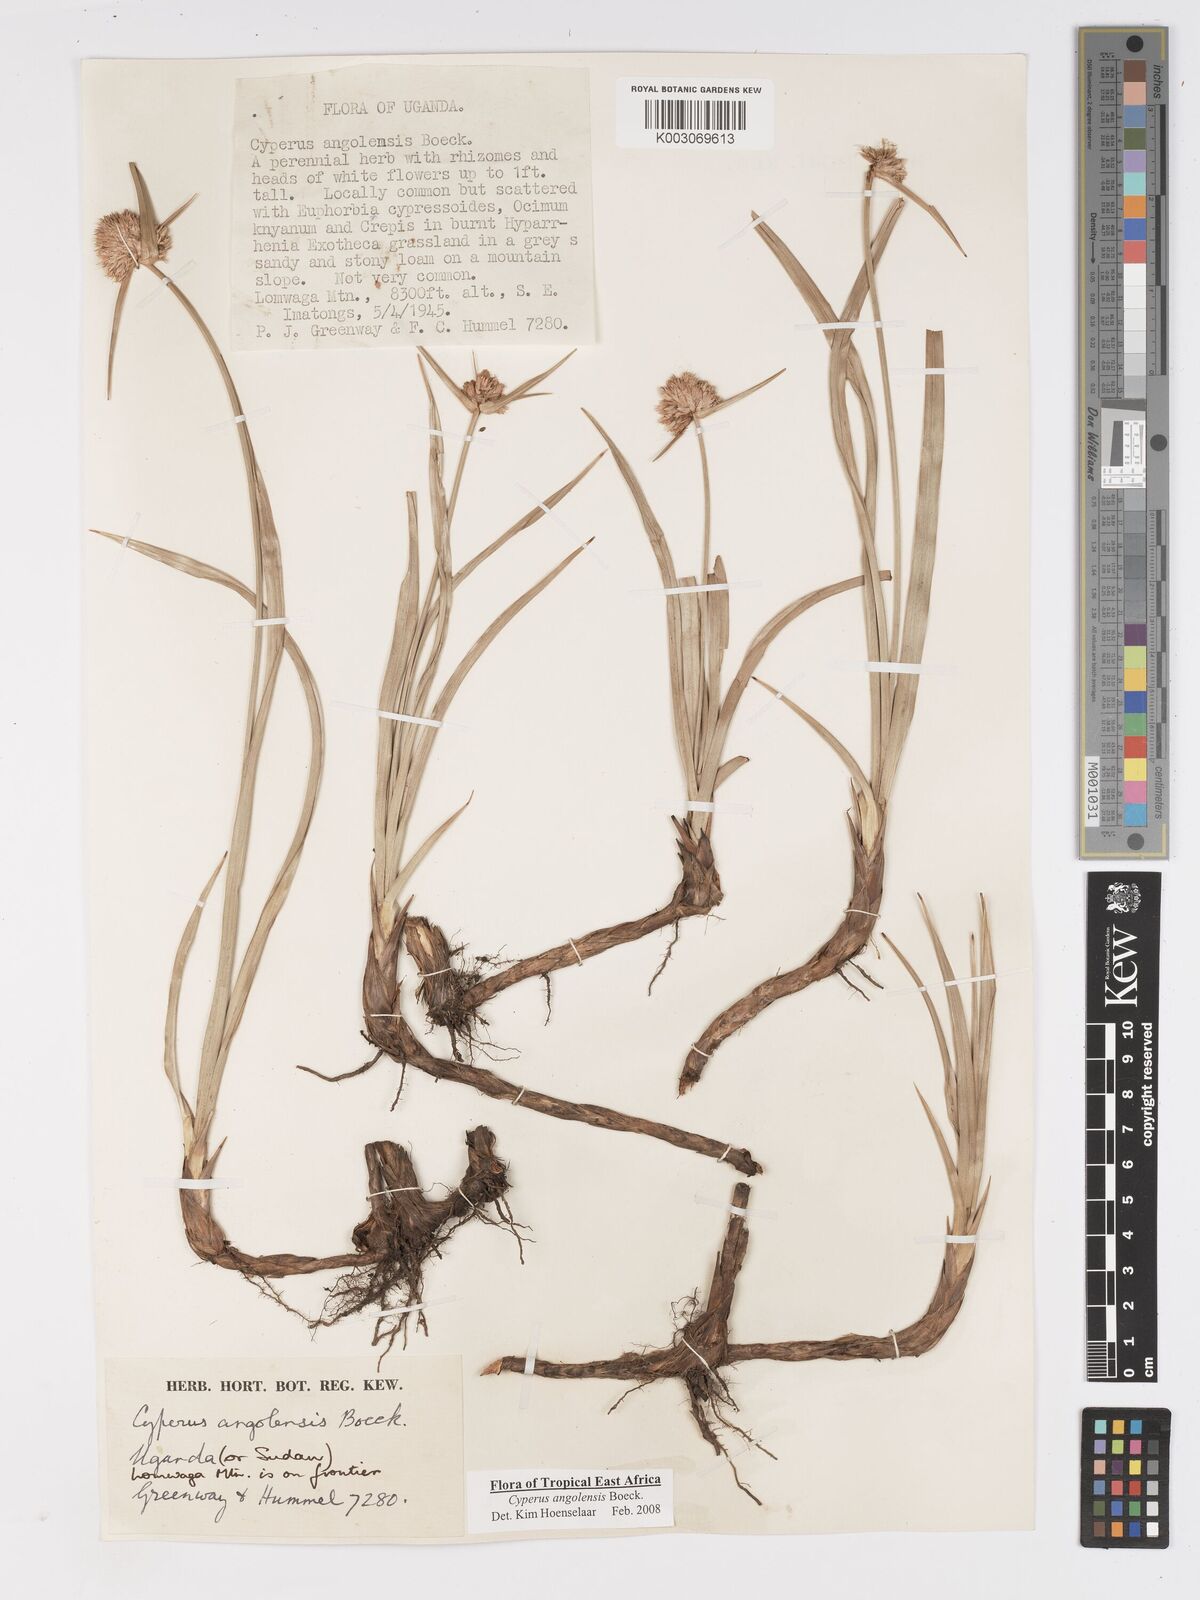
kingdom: Plantae
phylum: Tracheophyta
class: Liliopsida
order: Poales
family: Cyperaceae
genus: Cyperus
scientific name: Cyperus angolensis
